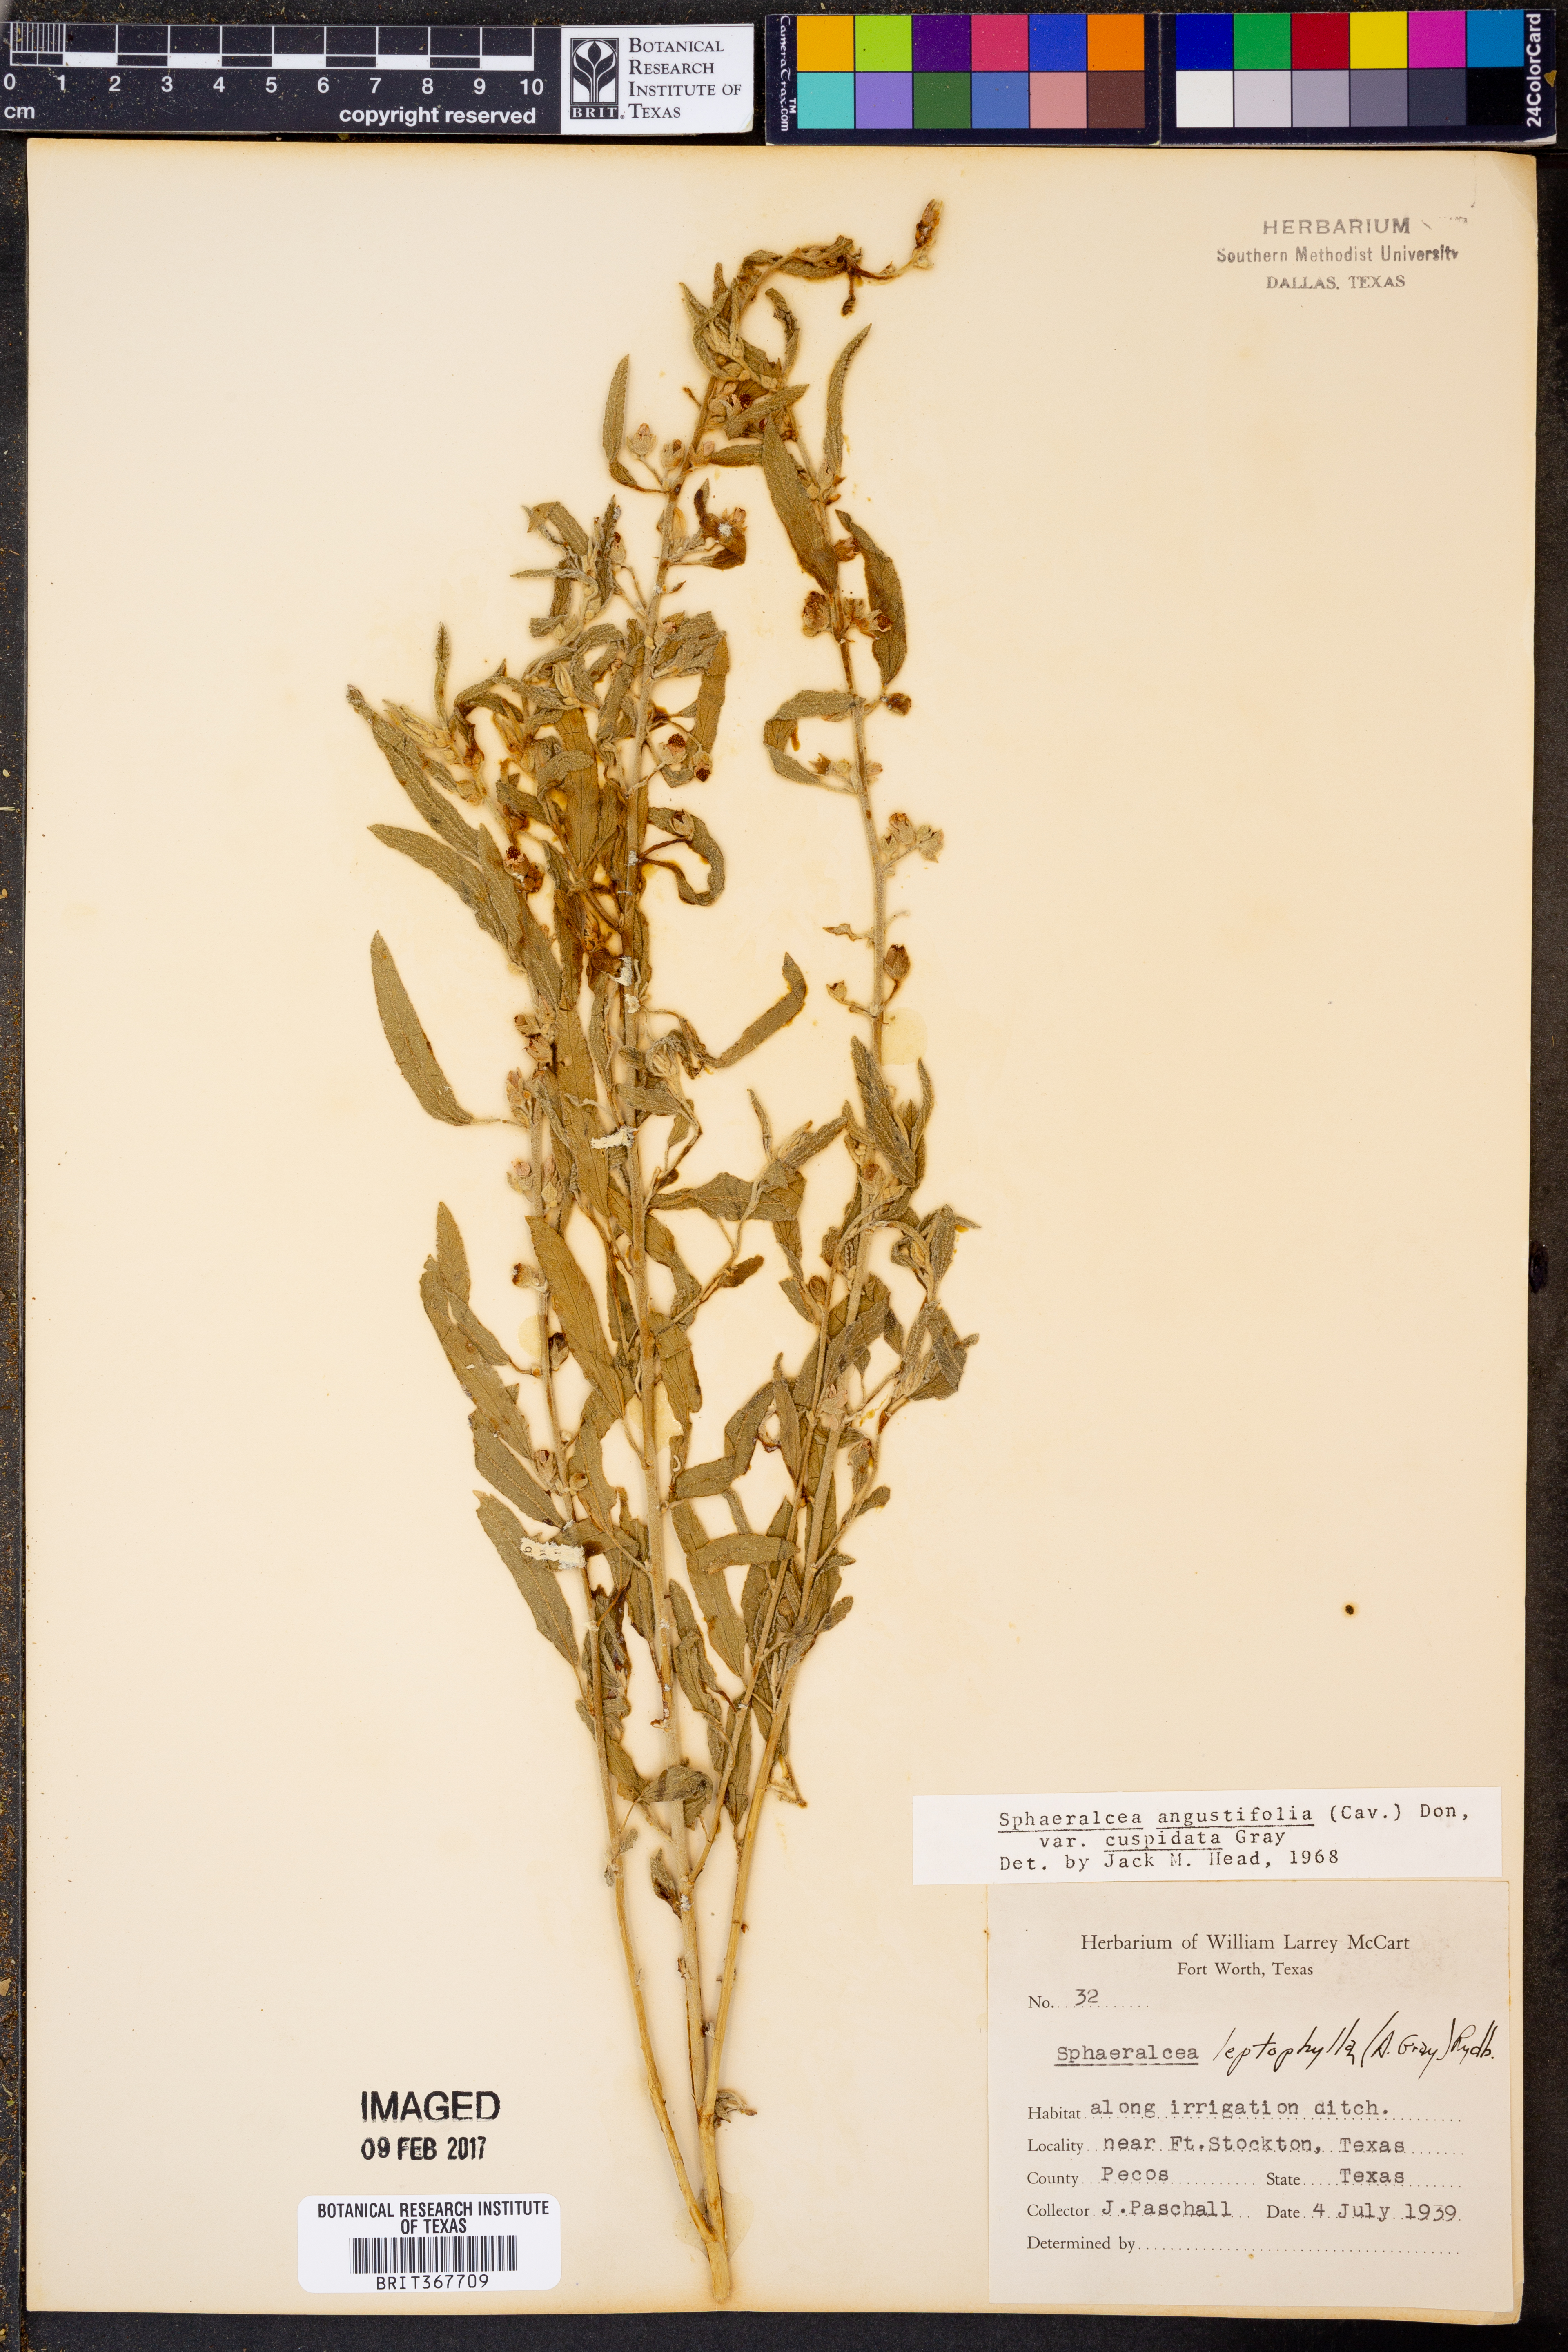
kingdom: Plantae
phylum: Tracheophyta
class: Magnoliopsida
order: Malvales
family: Malvaceae
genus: Sphaeralcea
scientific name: Sphaeralcea angustifolia
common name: Copper globe-mallow
